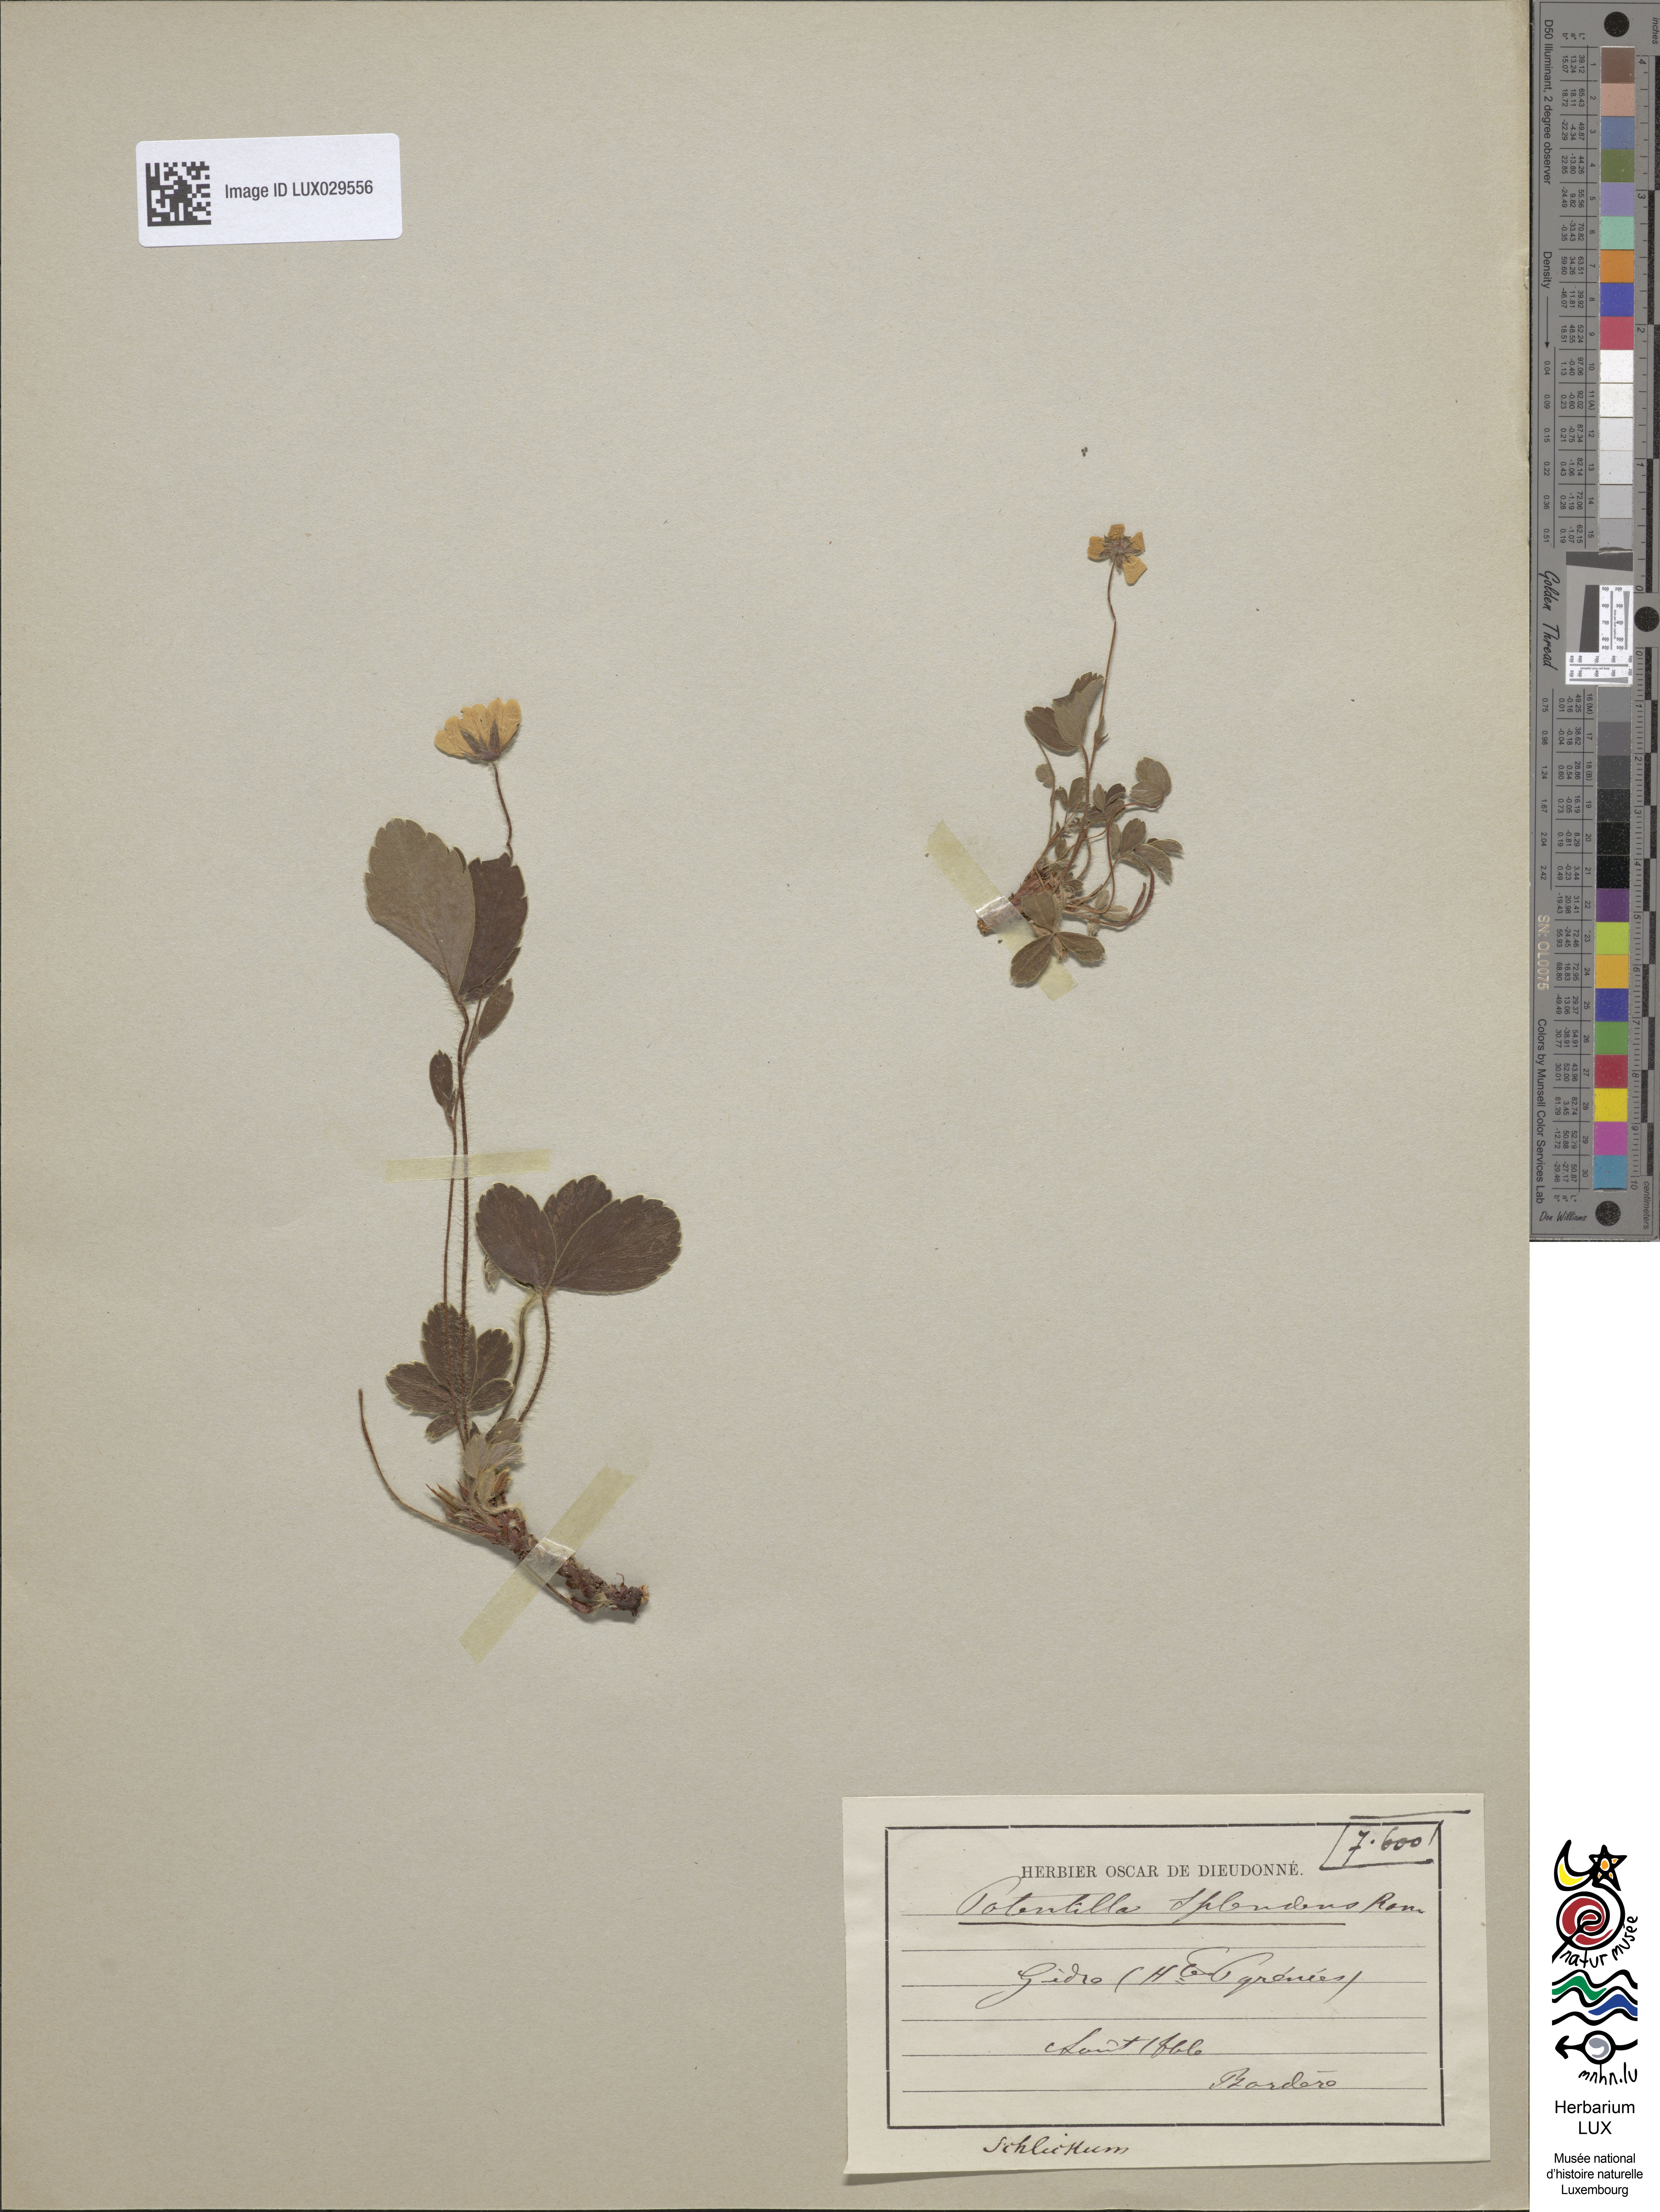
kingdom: Plantae
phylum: Tracheophyta
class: Magnoliopsida
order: Rosales
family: Rosaceae
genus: Potentilla
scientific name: Potentilla montana
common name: Mountain cinquefoil
